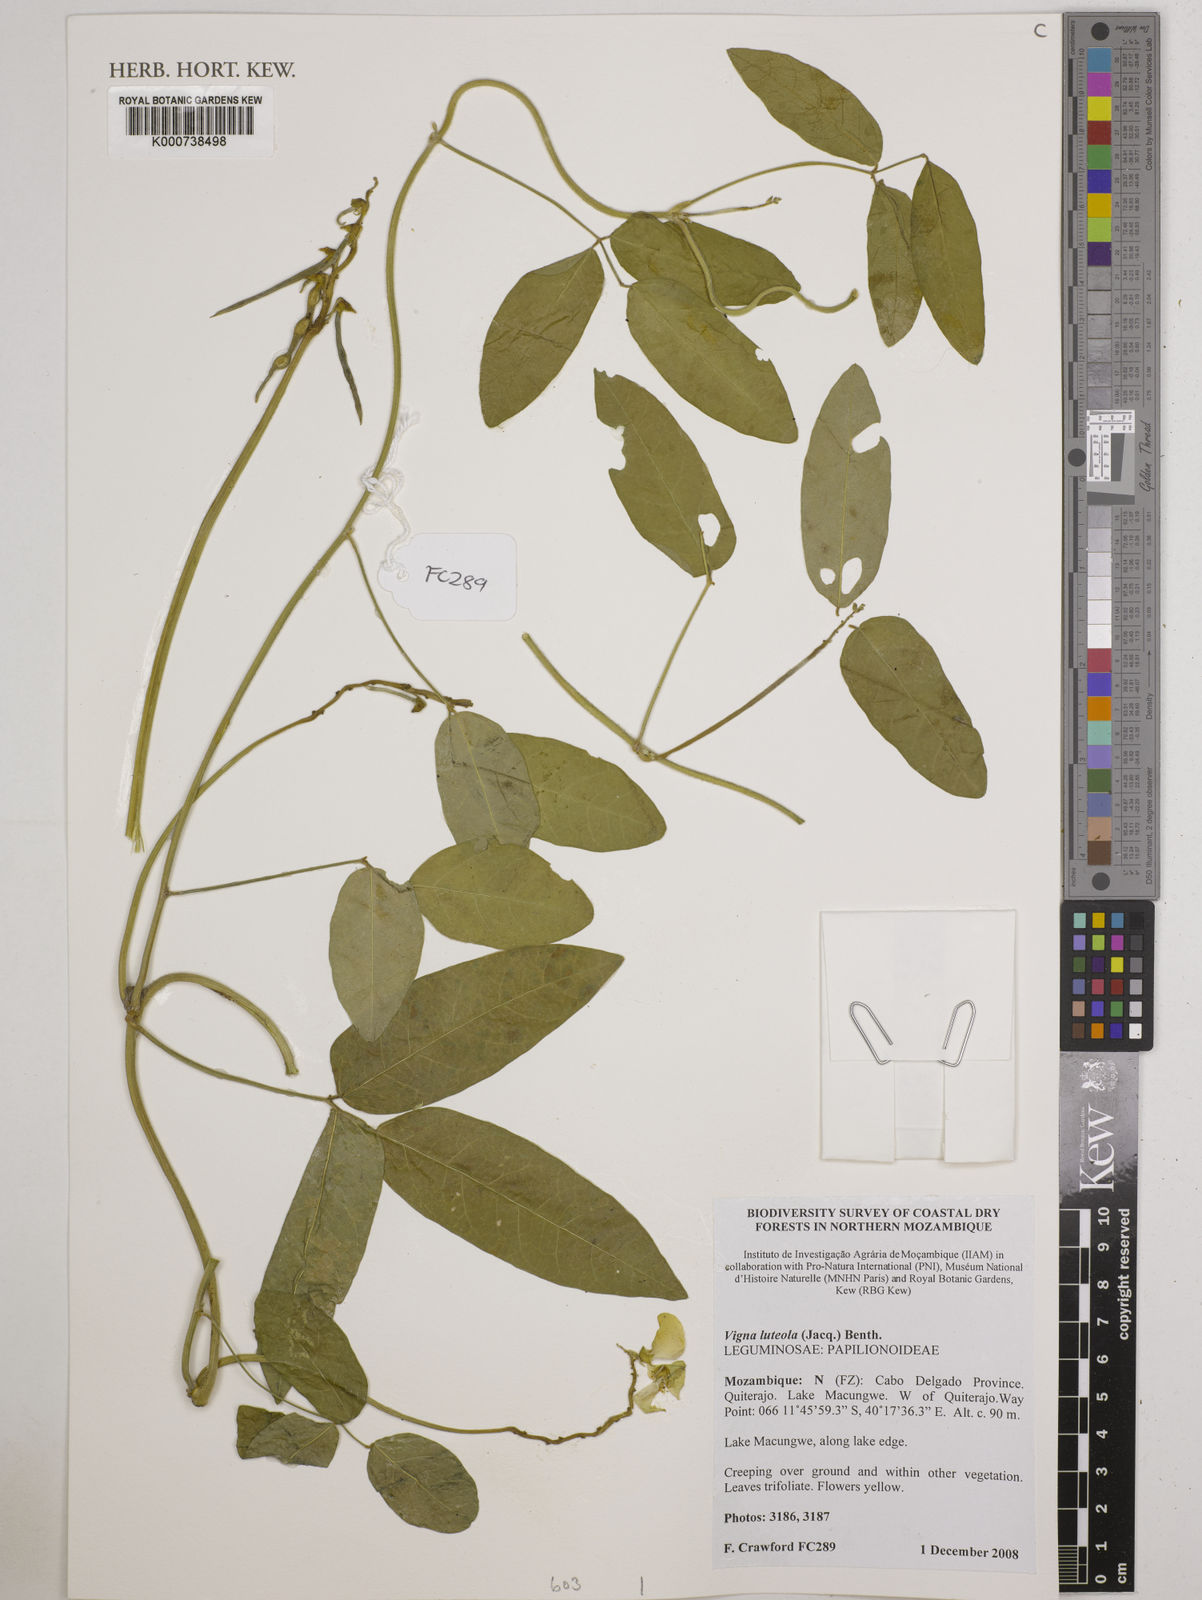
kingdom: Plantae
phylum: Tracheophyta
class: Magnoliopsida
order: Fabales
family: Fabaceae
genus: Vigna
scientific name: Vigna luteola
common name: Hairypod cowpea
